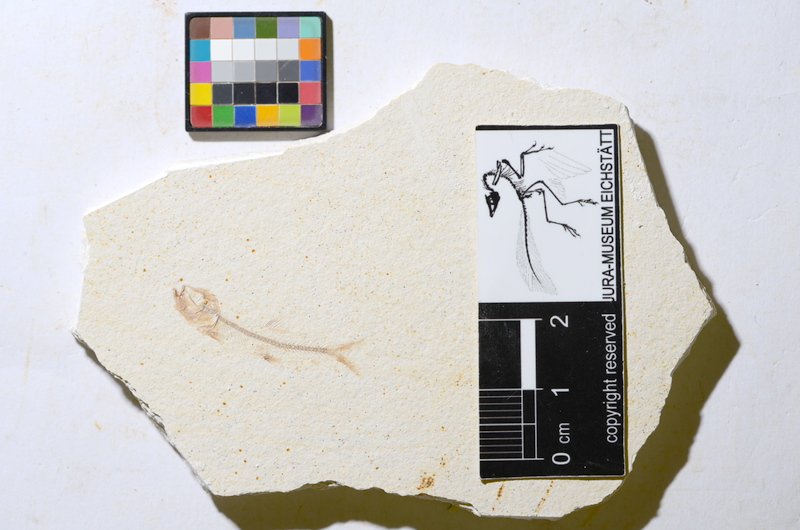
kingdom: Animalia
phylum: Chordata
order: Salmoniformes
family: Orthogonikleithridae
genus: Orthogonikleithrus
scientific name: Orthogonikleithrus
